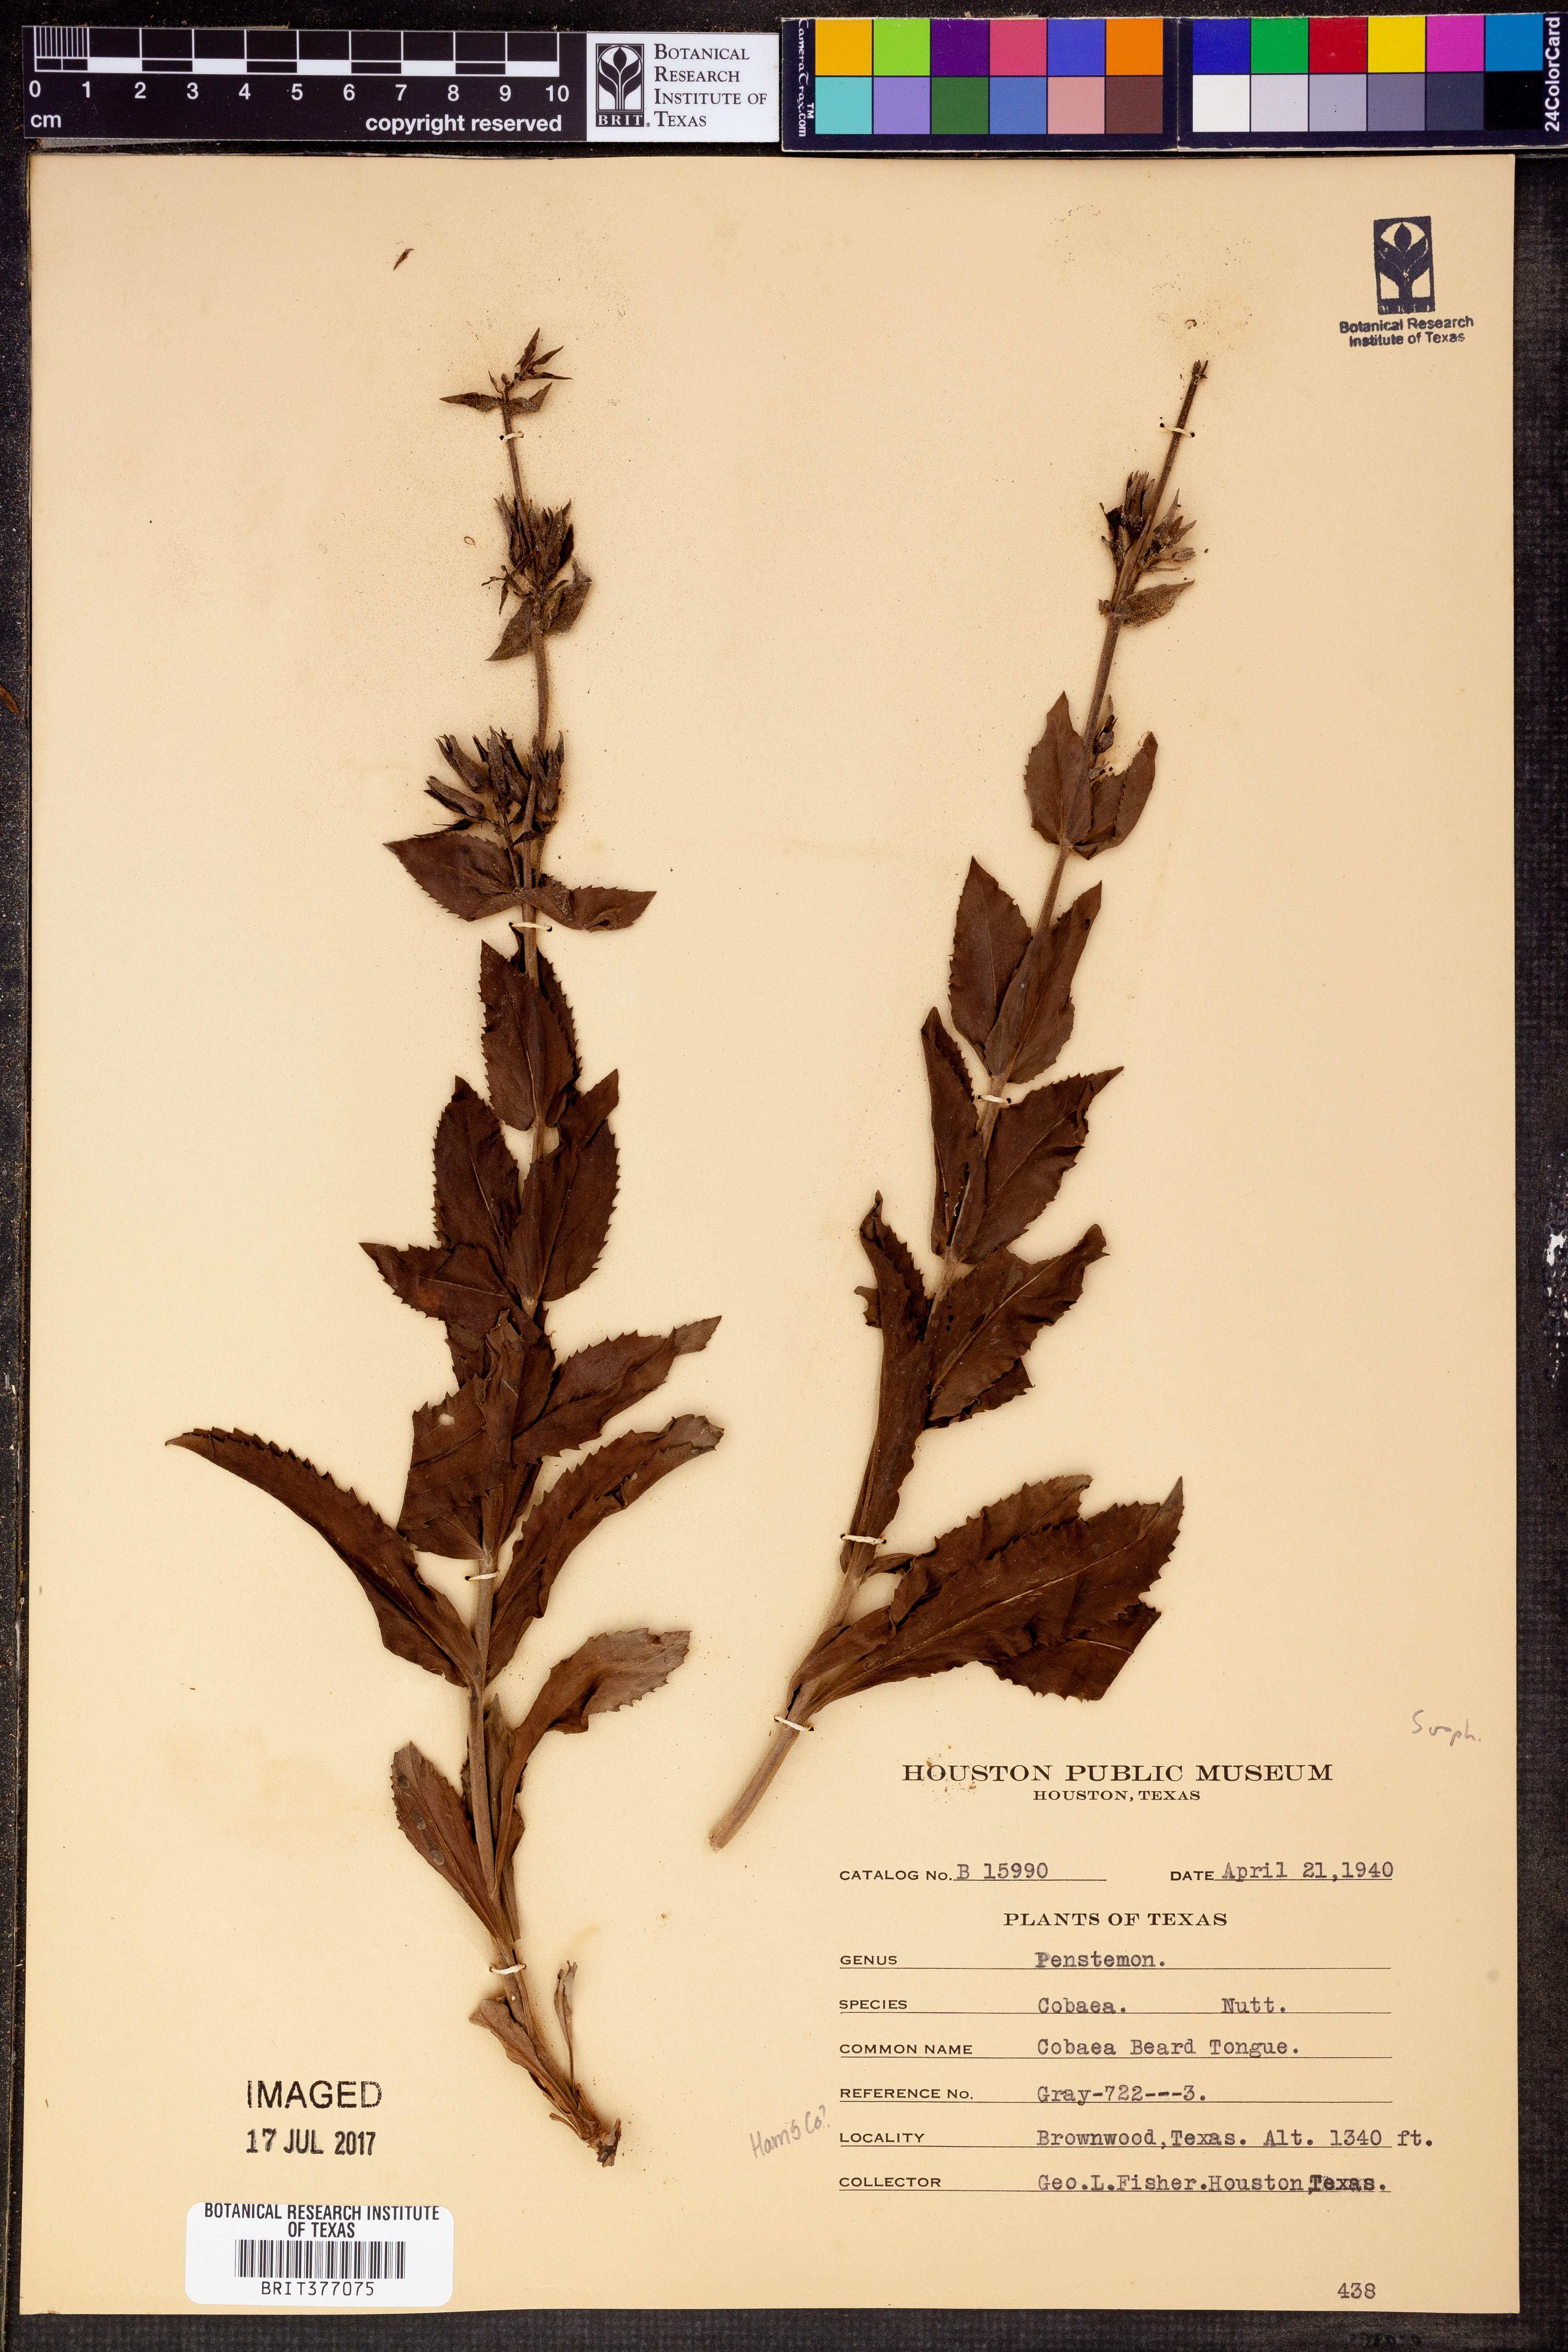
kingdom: Plantae
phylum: Tracheophyta
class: Magnoliopsida
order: Lamiales
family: Plantaginaceae
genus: Penstemon
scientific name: Penstemon cobaea
